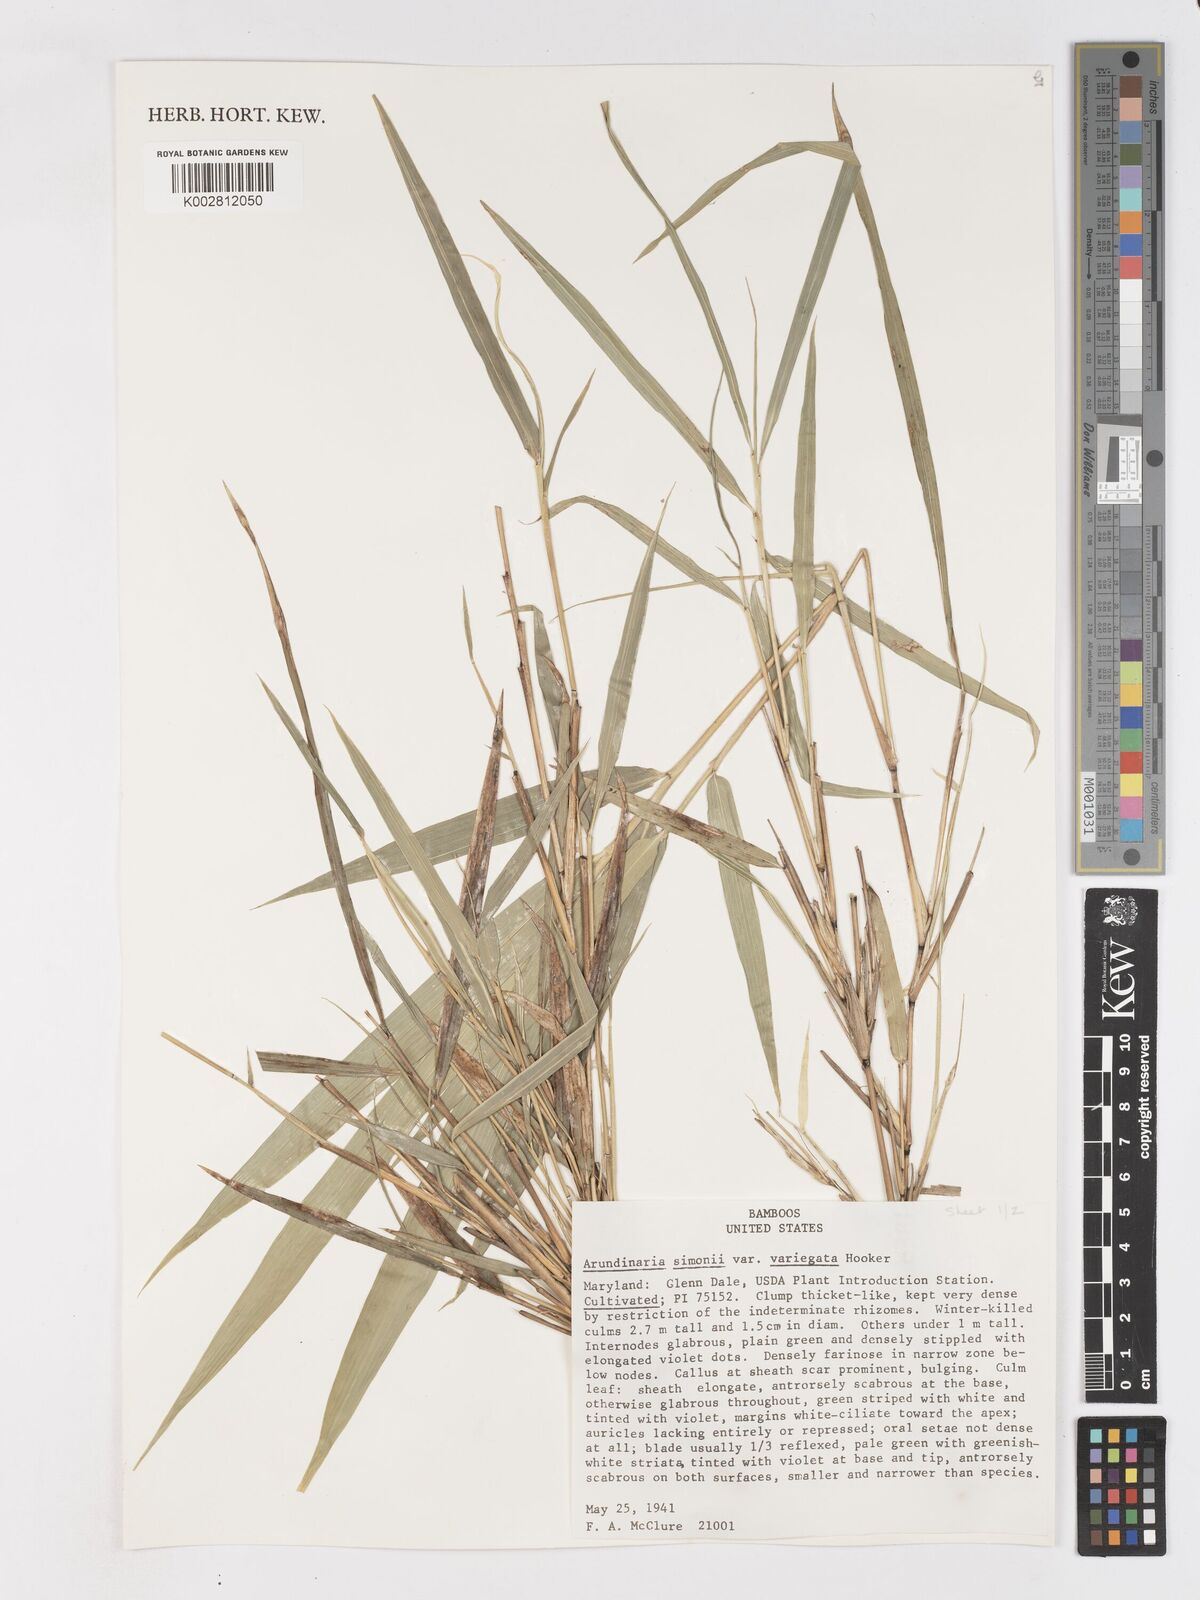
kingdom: Plantae
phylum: Tracheophyta
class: Liliopsida
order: Poales
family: Poaceae
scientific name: Poaceae
